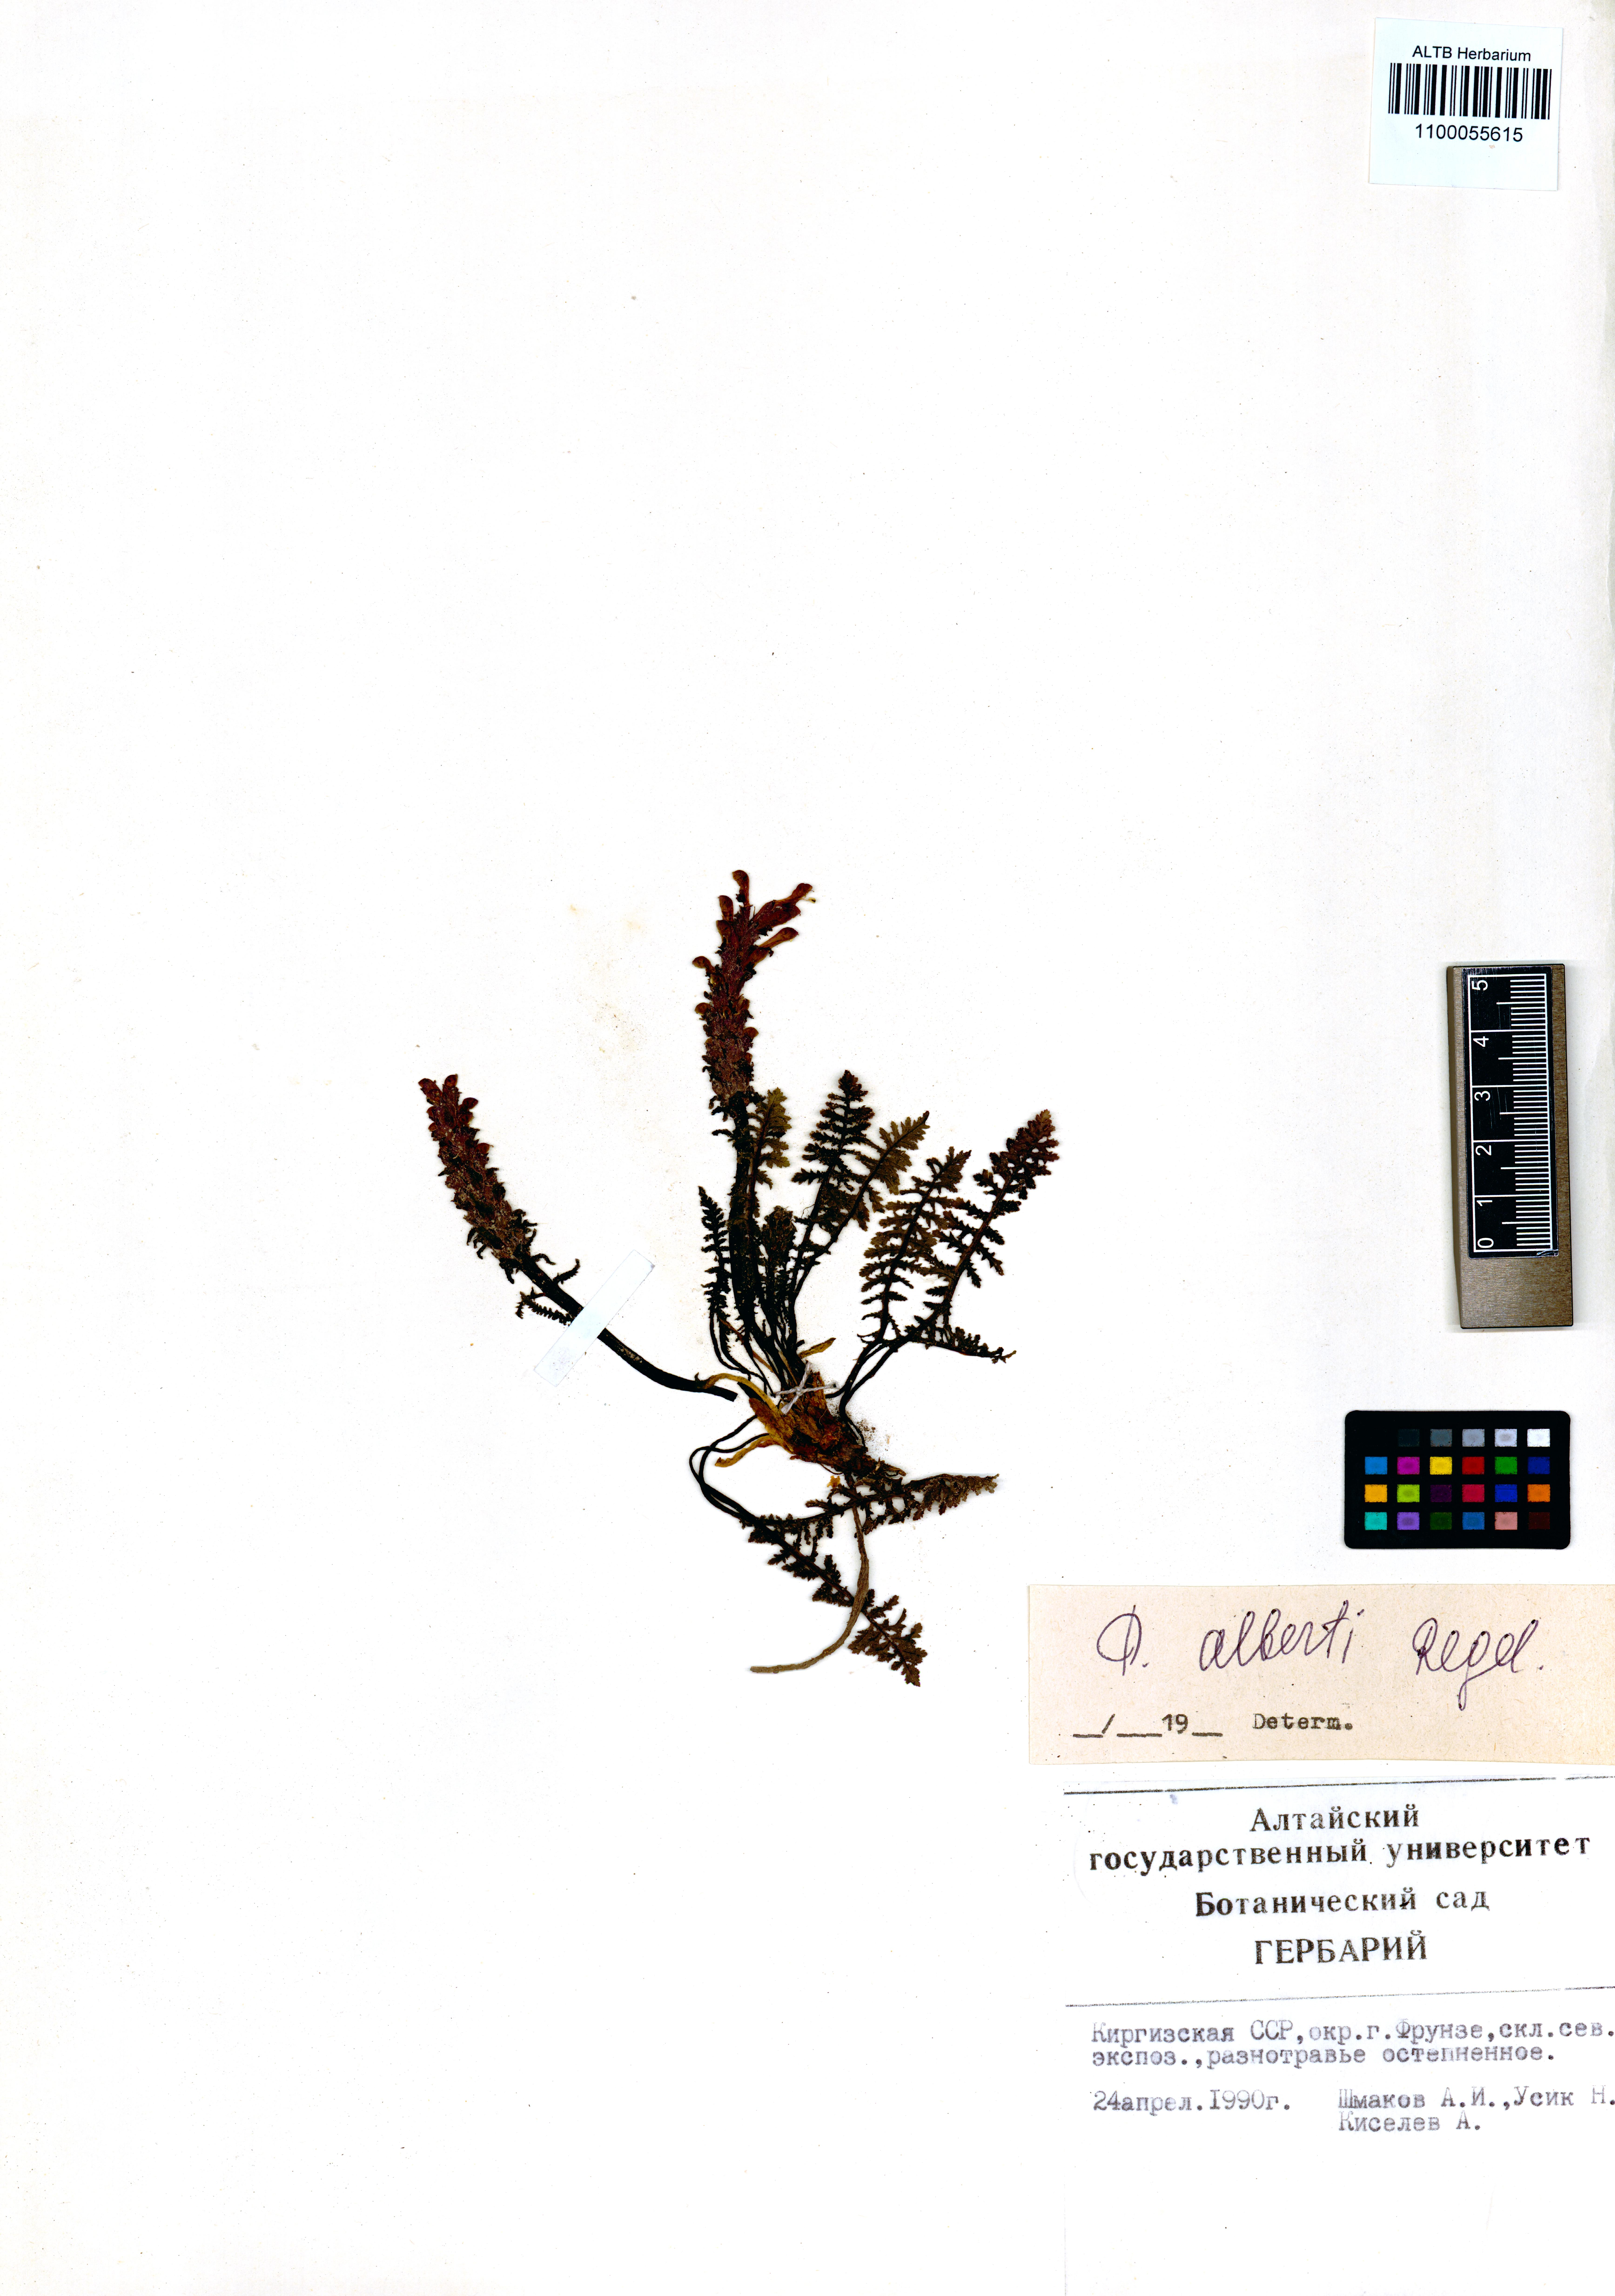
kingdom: Plantae
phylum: Tracheophyta
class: Magnoliopsida
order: Lamiales
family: Orobanchaceae
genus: Pedicularis
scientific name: Pedicularis alberti
